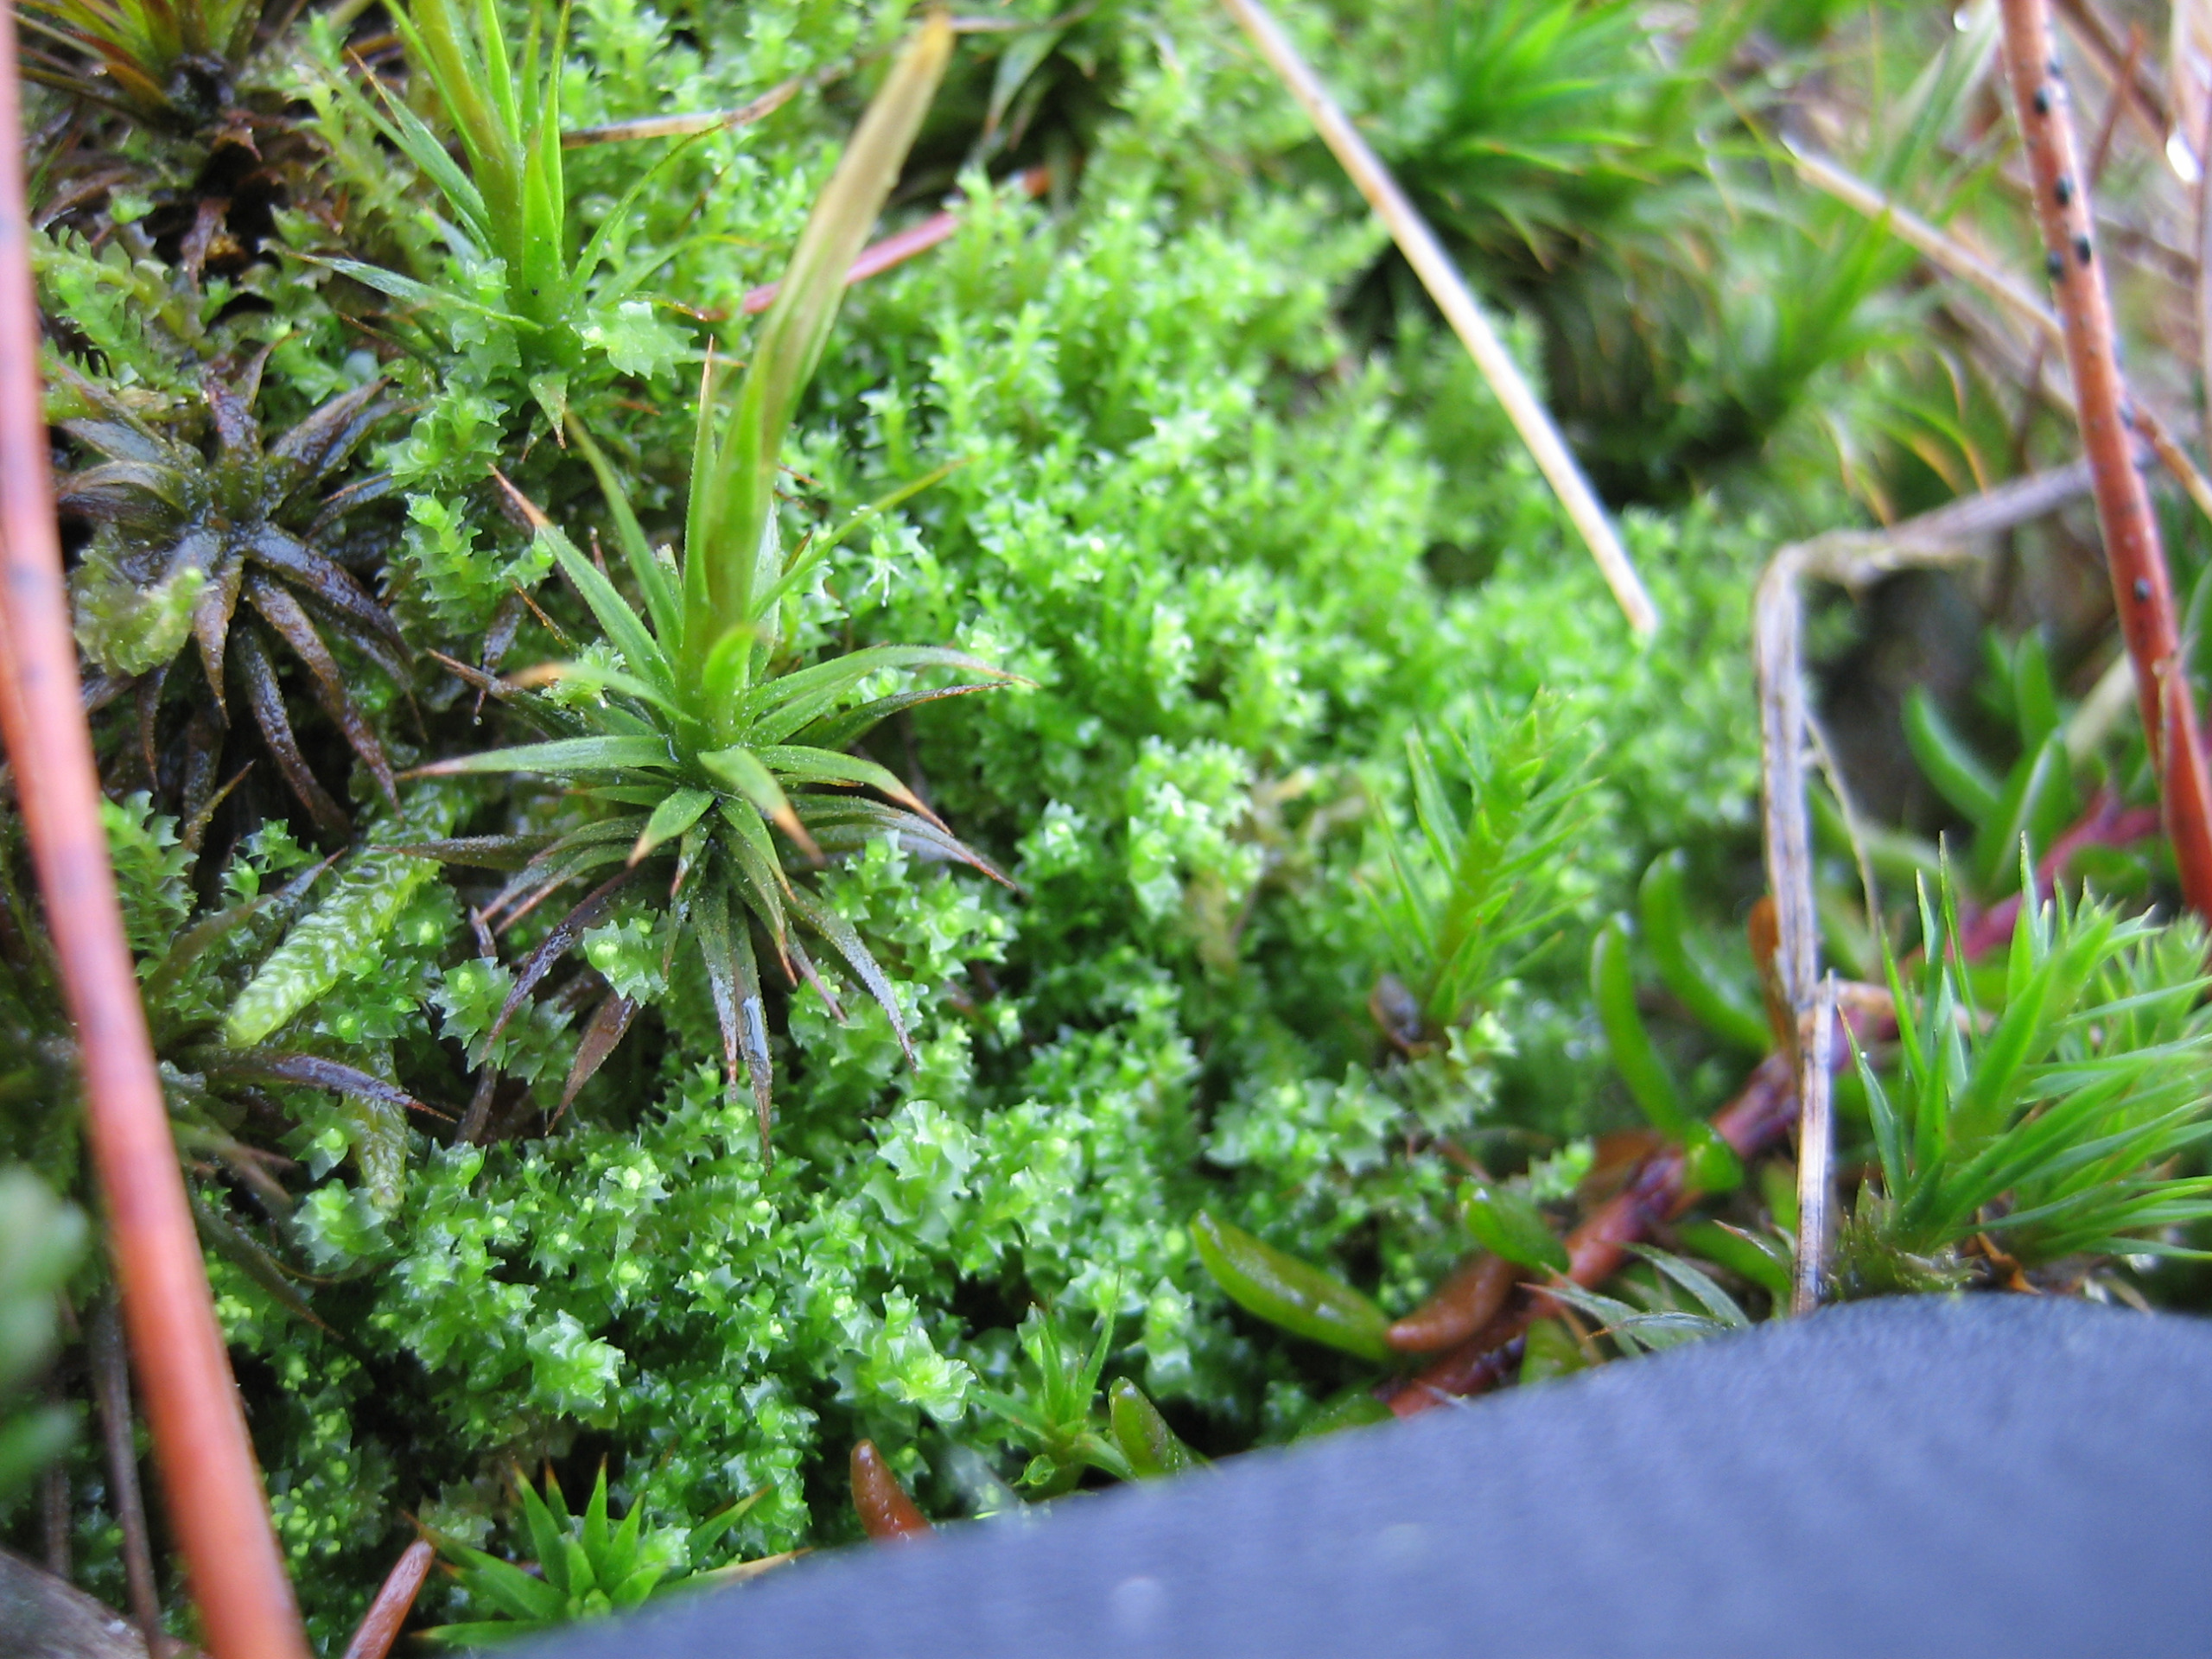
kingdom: Plantae
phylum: Marchantiophyta
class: Jungermanniopsida
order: Jungermanniales
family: Lophoziaceae
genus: Lophozia
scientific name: Lophozia ventricosa
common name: Grønkornet foldbæger
